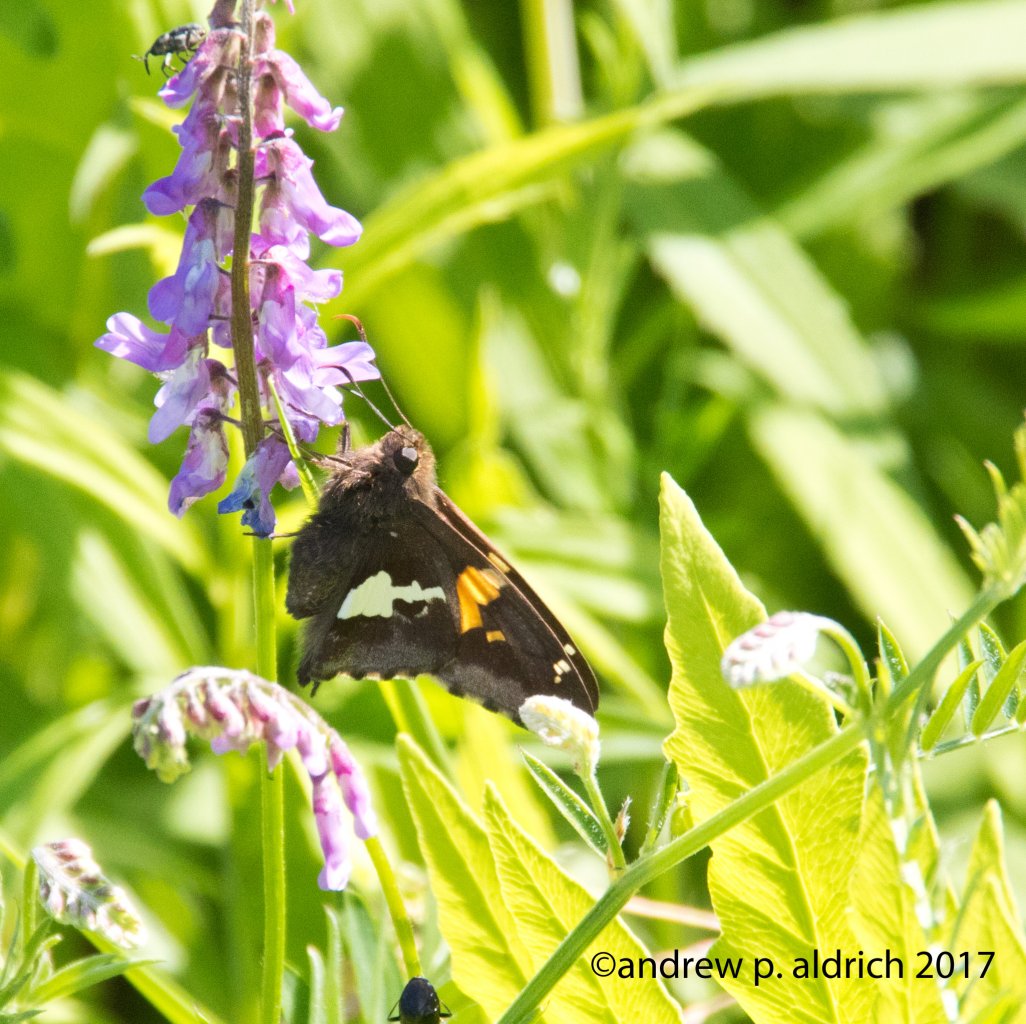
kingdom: Animalia
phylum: Arthropoda
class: Insecta
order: Lepidoptera
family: Hesperiidae
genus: Epargyreus
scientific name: Epargyreus clarus
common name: Silver-spotted Skipper
